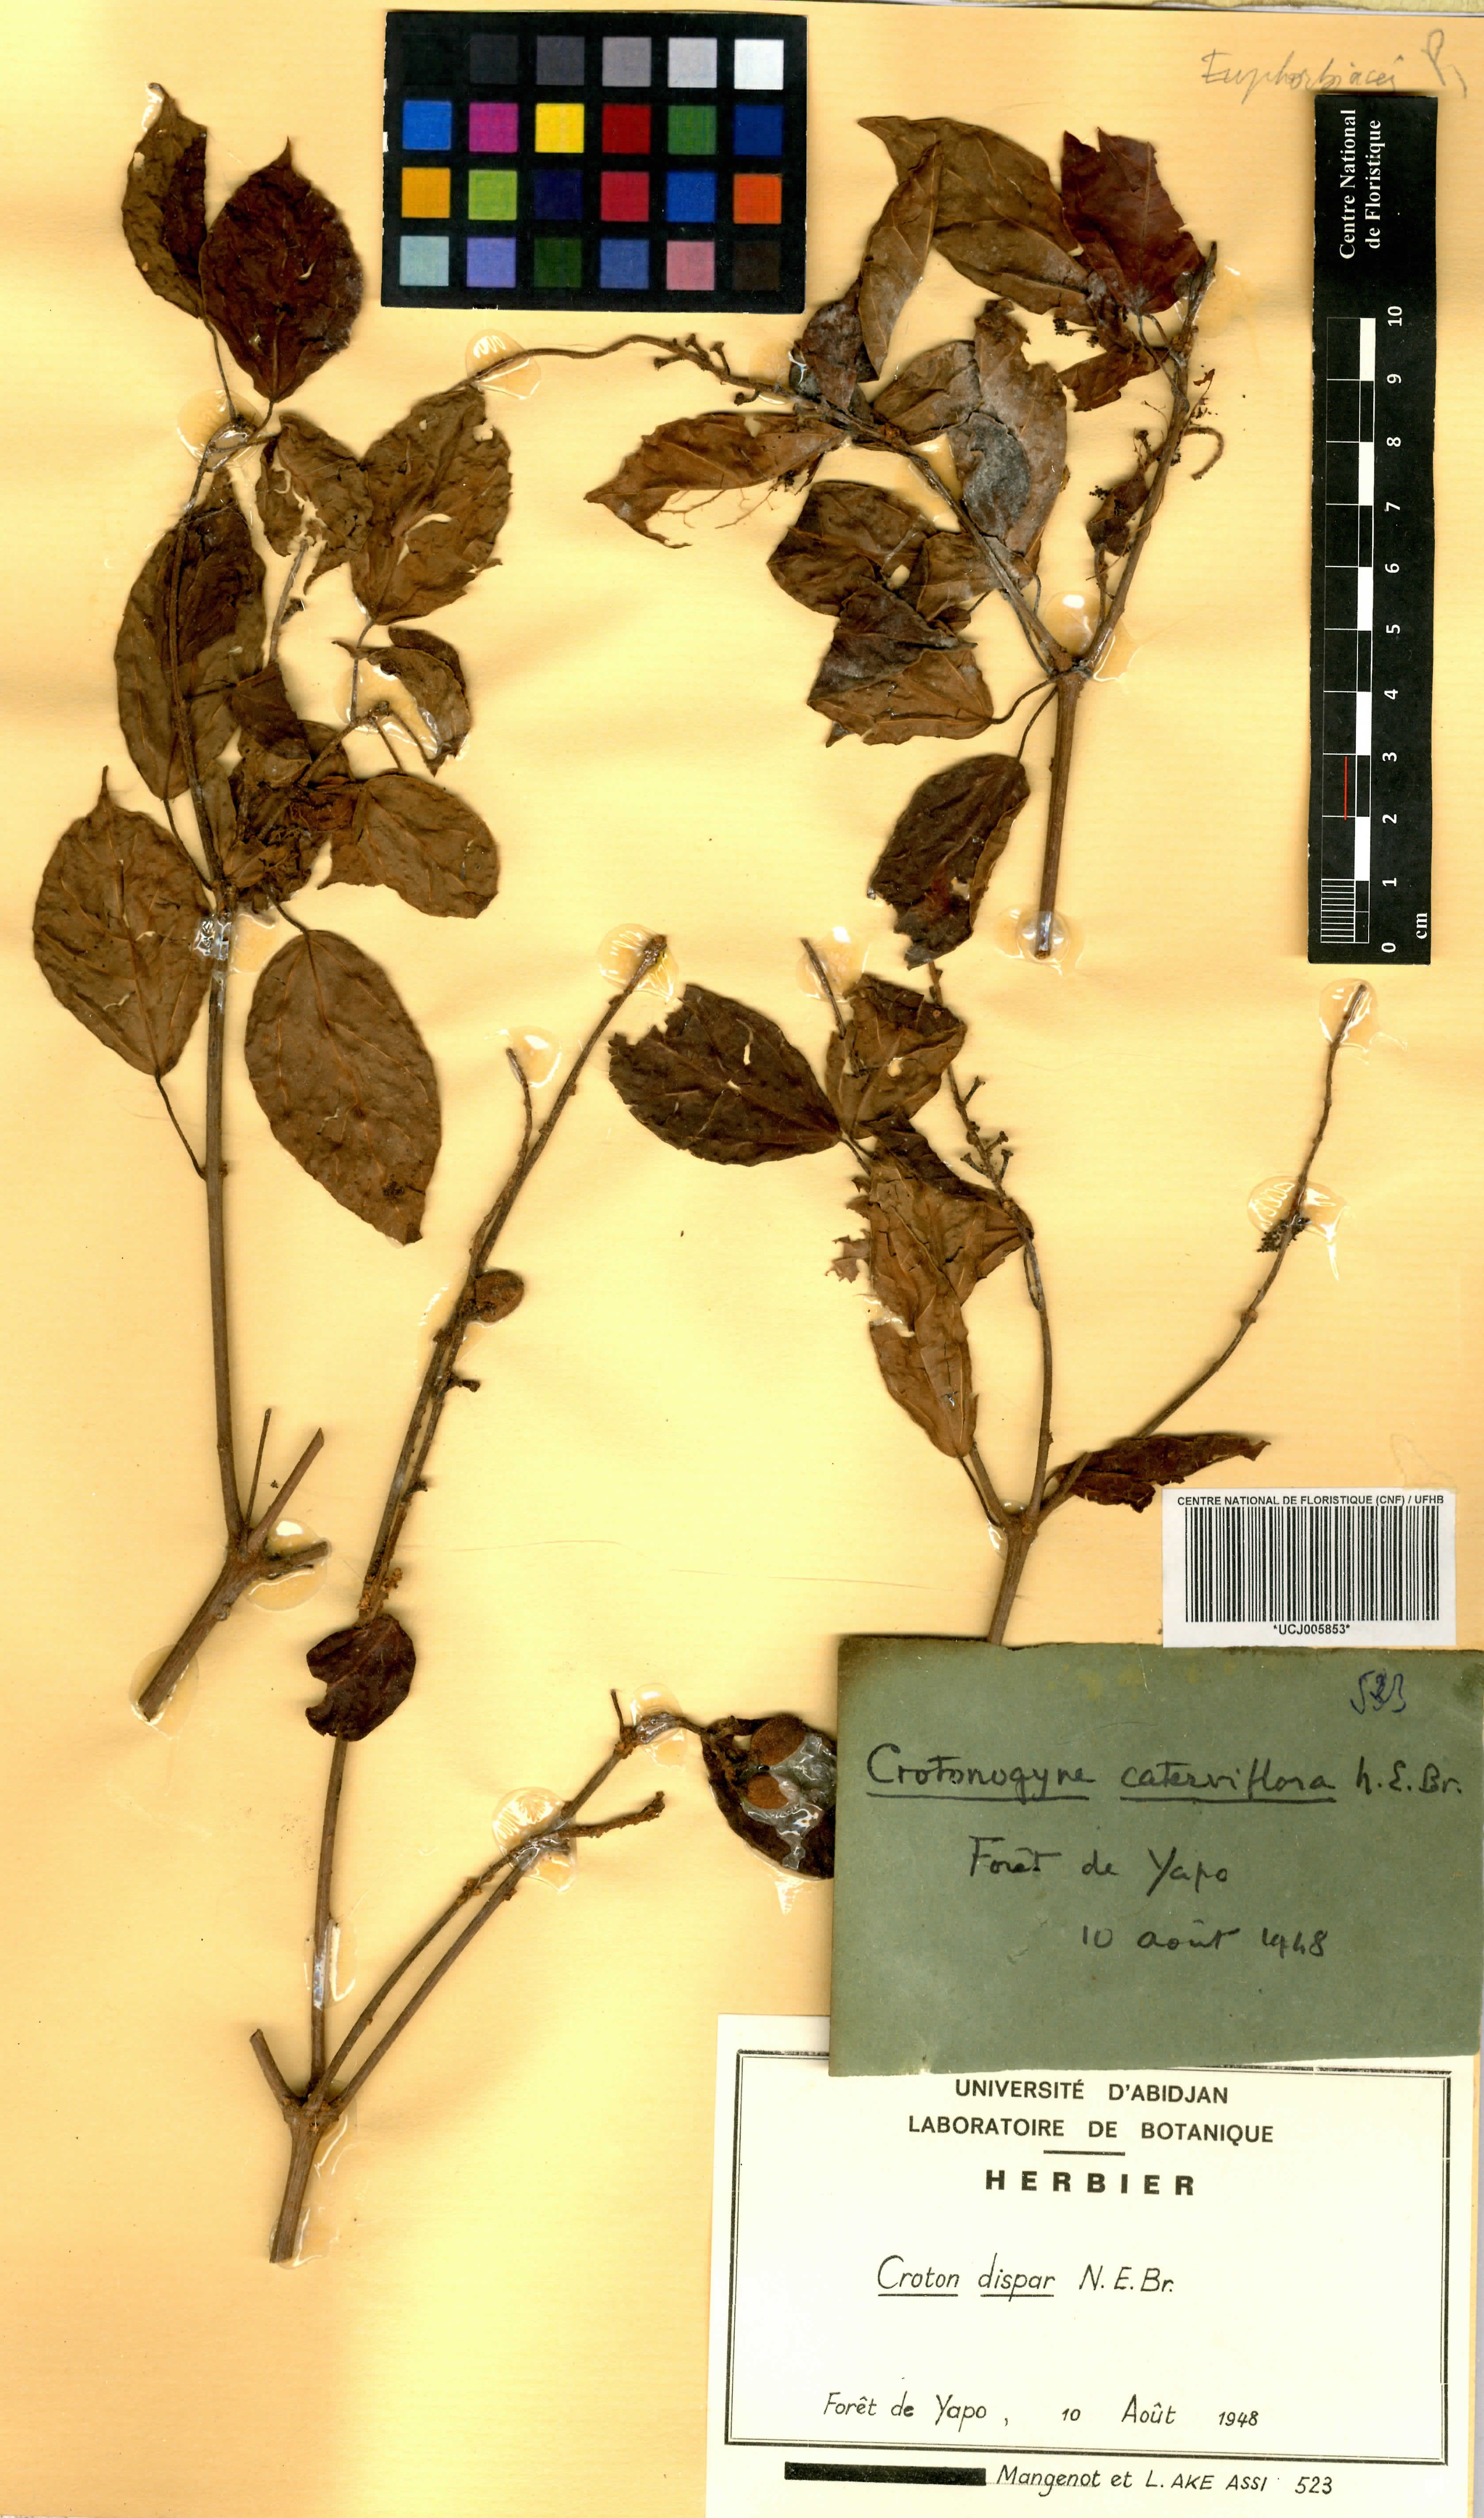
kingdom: Plantae
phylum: Tracheophyta
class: Magnoliopsida
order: Malpighiales
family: Euphorbiaceae
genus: Croton
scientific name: Croton dispar
